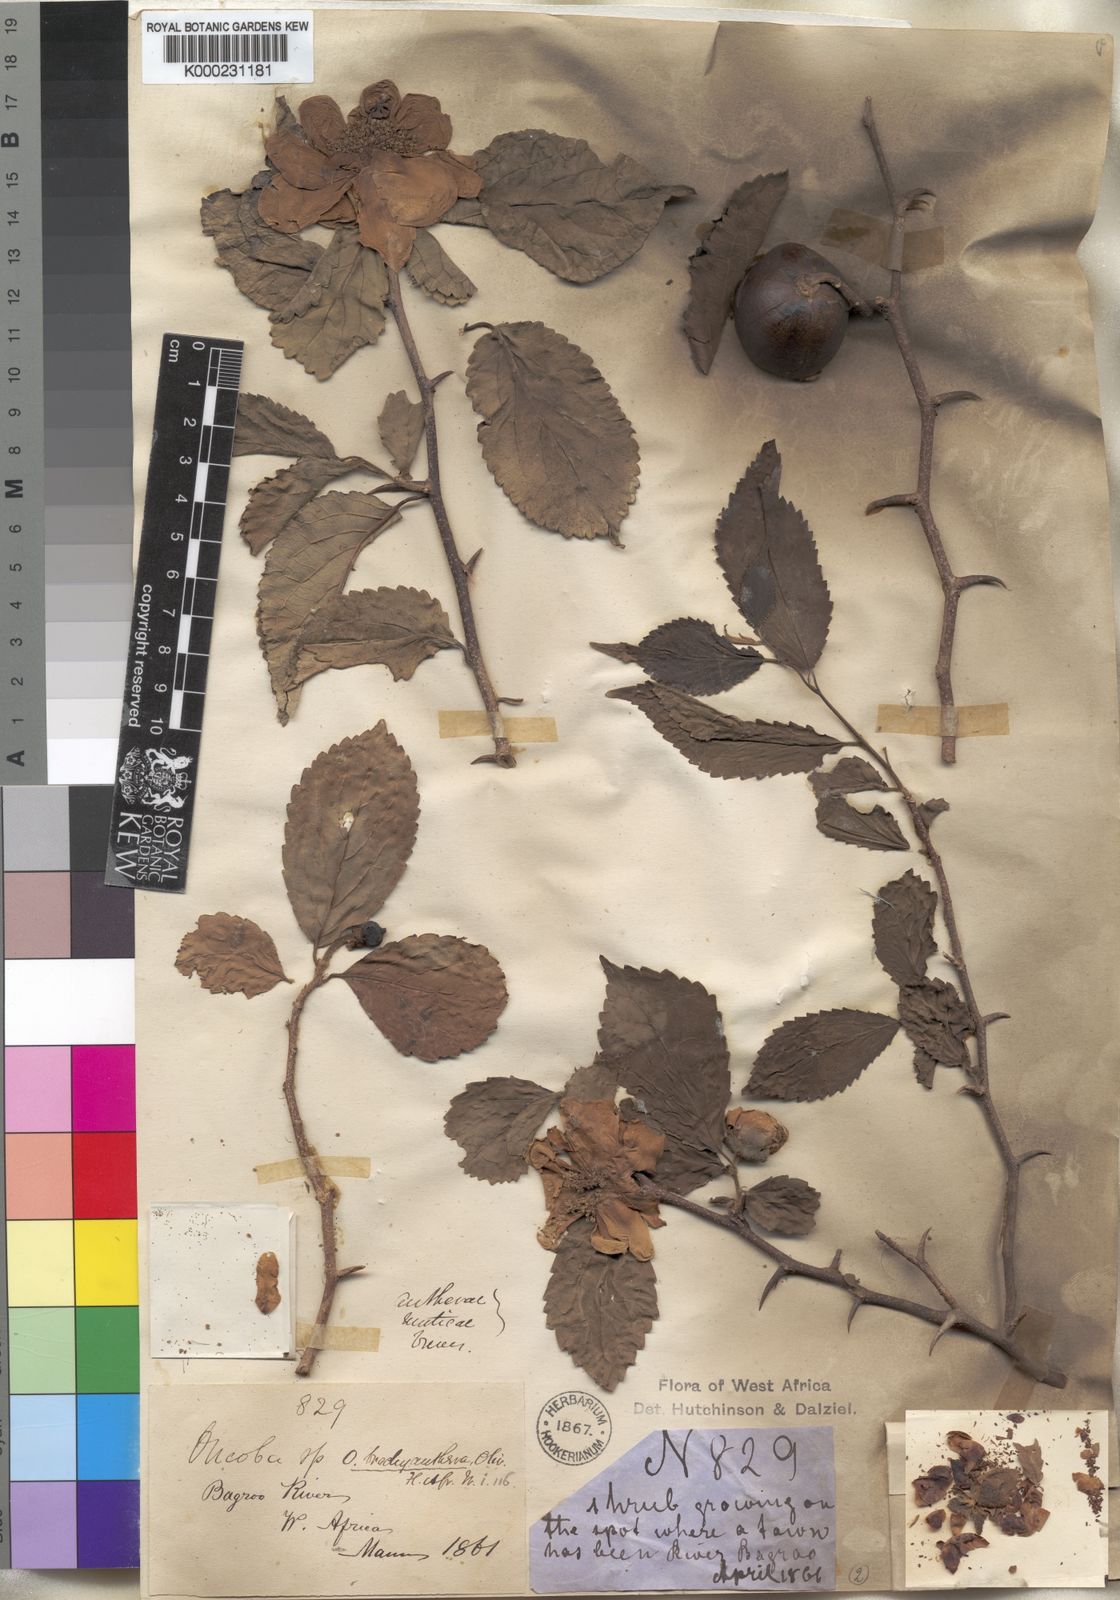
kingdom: Plantae
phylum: Tracheophyta
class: Magnoliopsida
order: Malpighiales
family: Salicaceae
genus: Oncoba
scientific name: Oncoba brachyanthera
